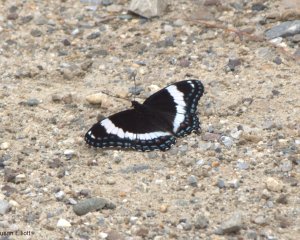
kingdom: Animalia
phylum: Arthropoda
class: Insecta
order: Lepidoptera
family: Nymphalidae
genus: Limenitis
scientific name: Limenitis arthemis
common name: Red-spotted Admiral
